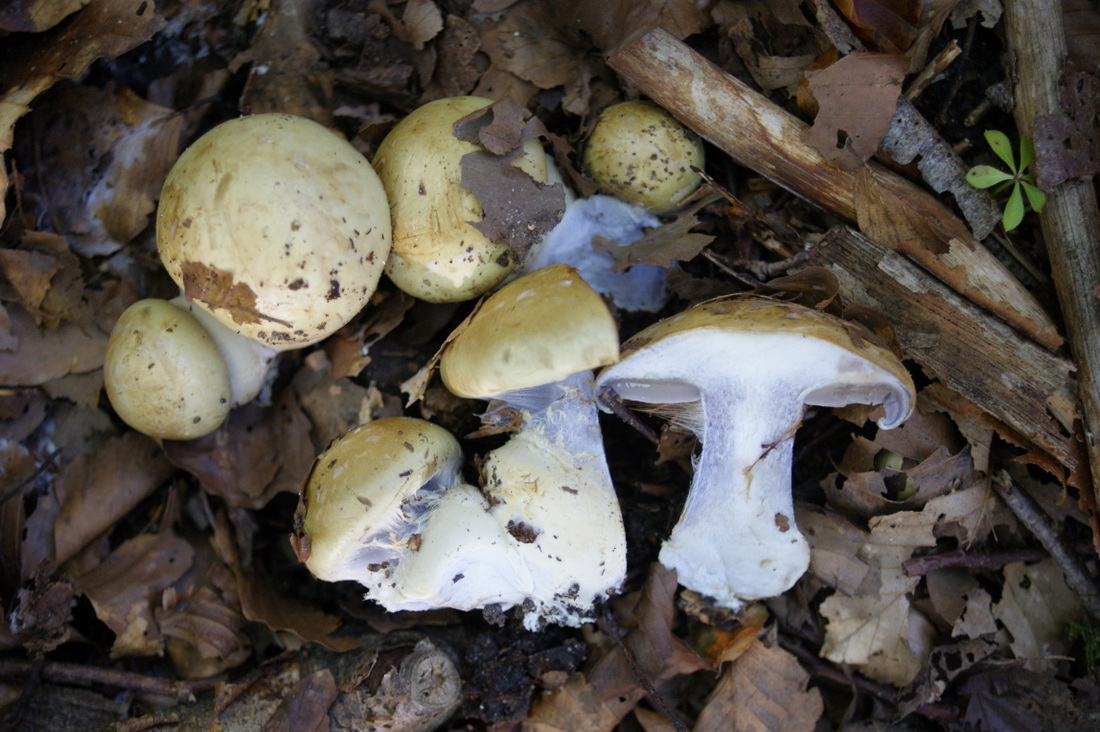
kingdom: Fungi
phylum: Basidiomycota
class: Agaricomycetes
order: Agaricales
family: Cortinariaceae
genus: Cortinarius
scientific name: Cortinarius anserinus
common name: bøge-slørhat
